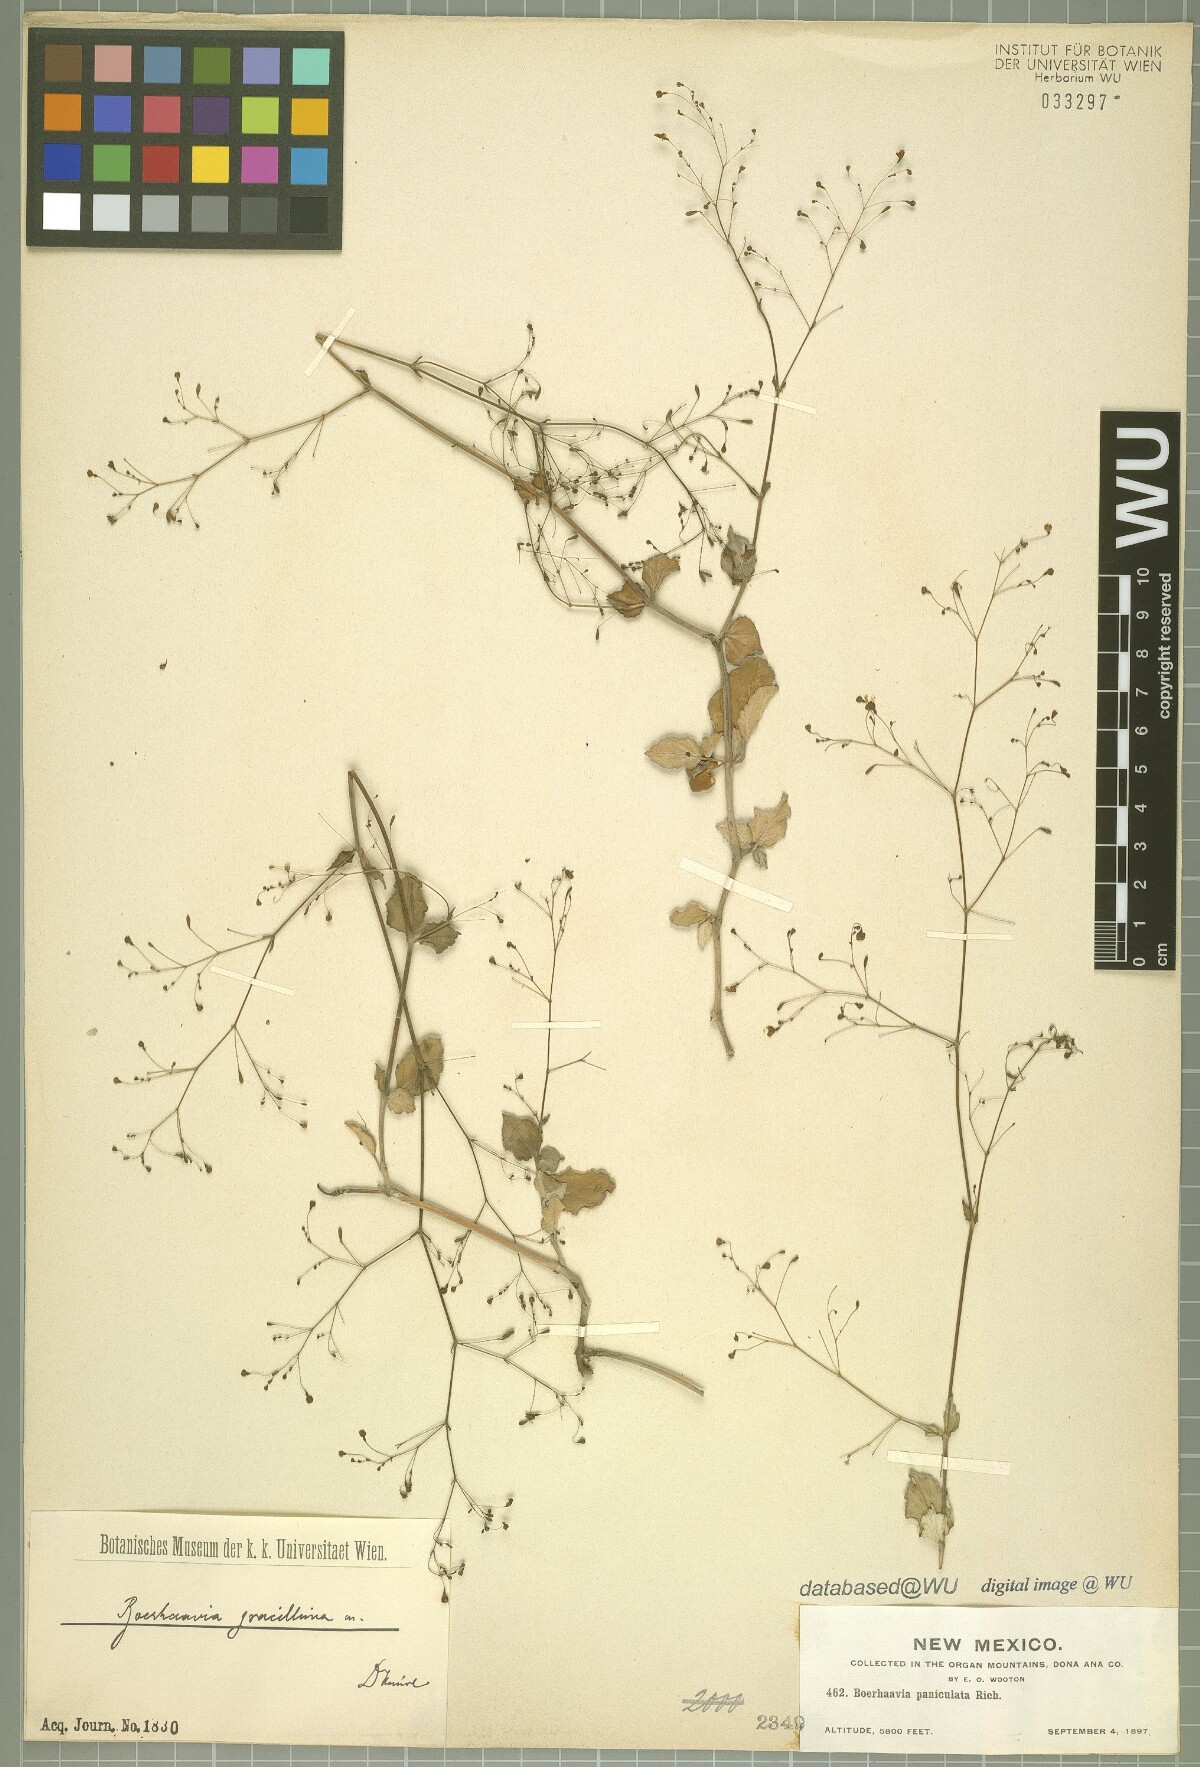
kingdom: Plantae
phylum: Tracheophyta
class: Magnoliopsida
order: Caryophyllales
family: Nyctaginaceae
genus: Boerhavia
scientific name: Boerhavia gracillima
